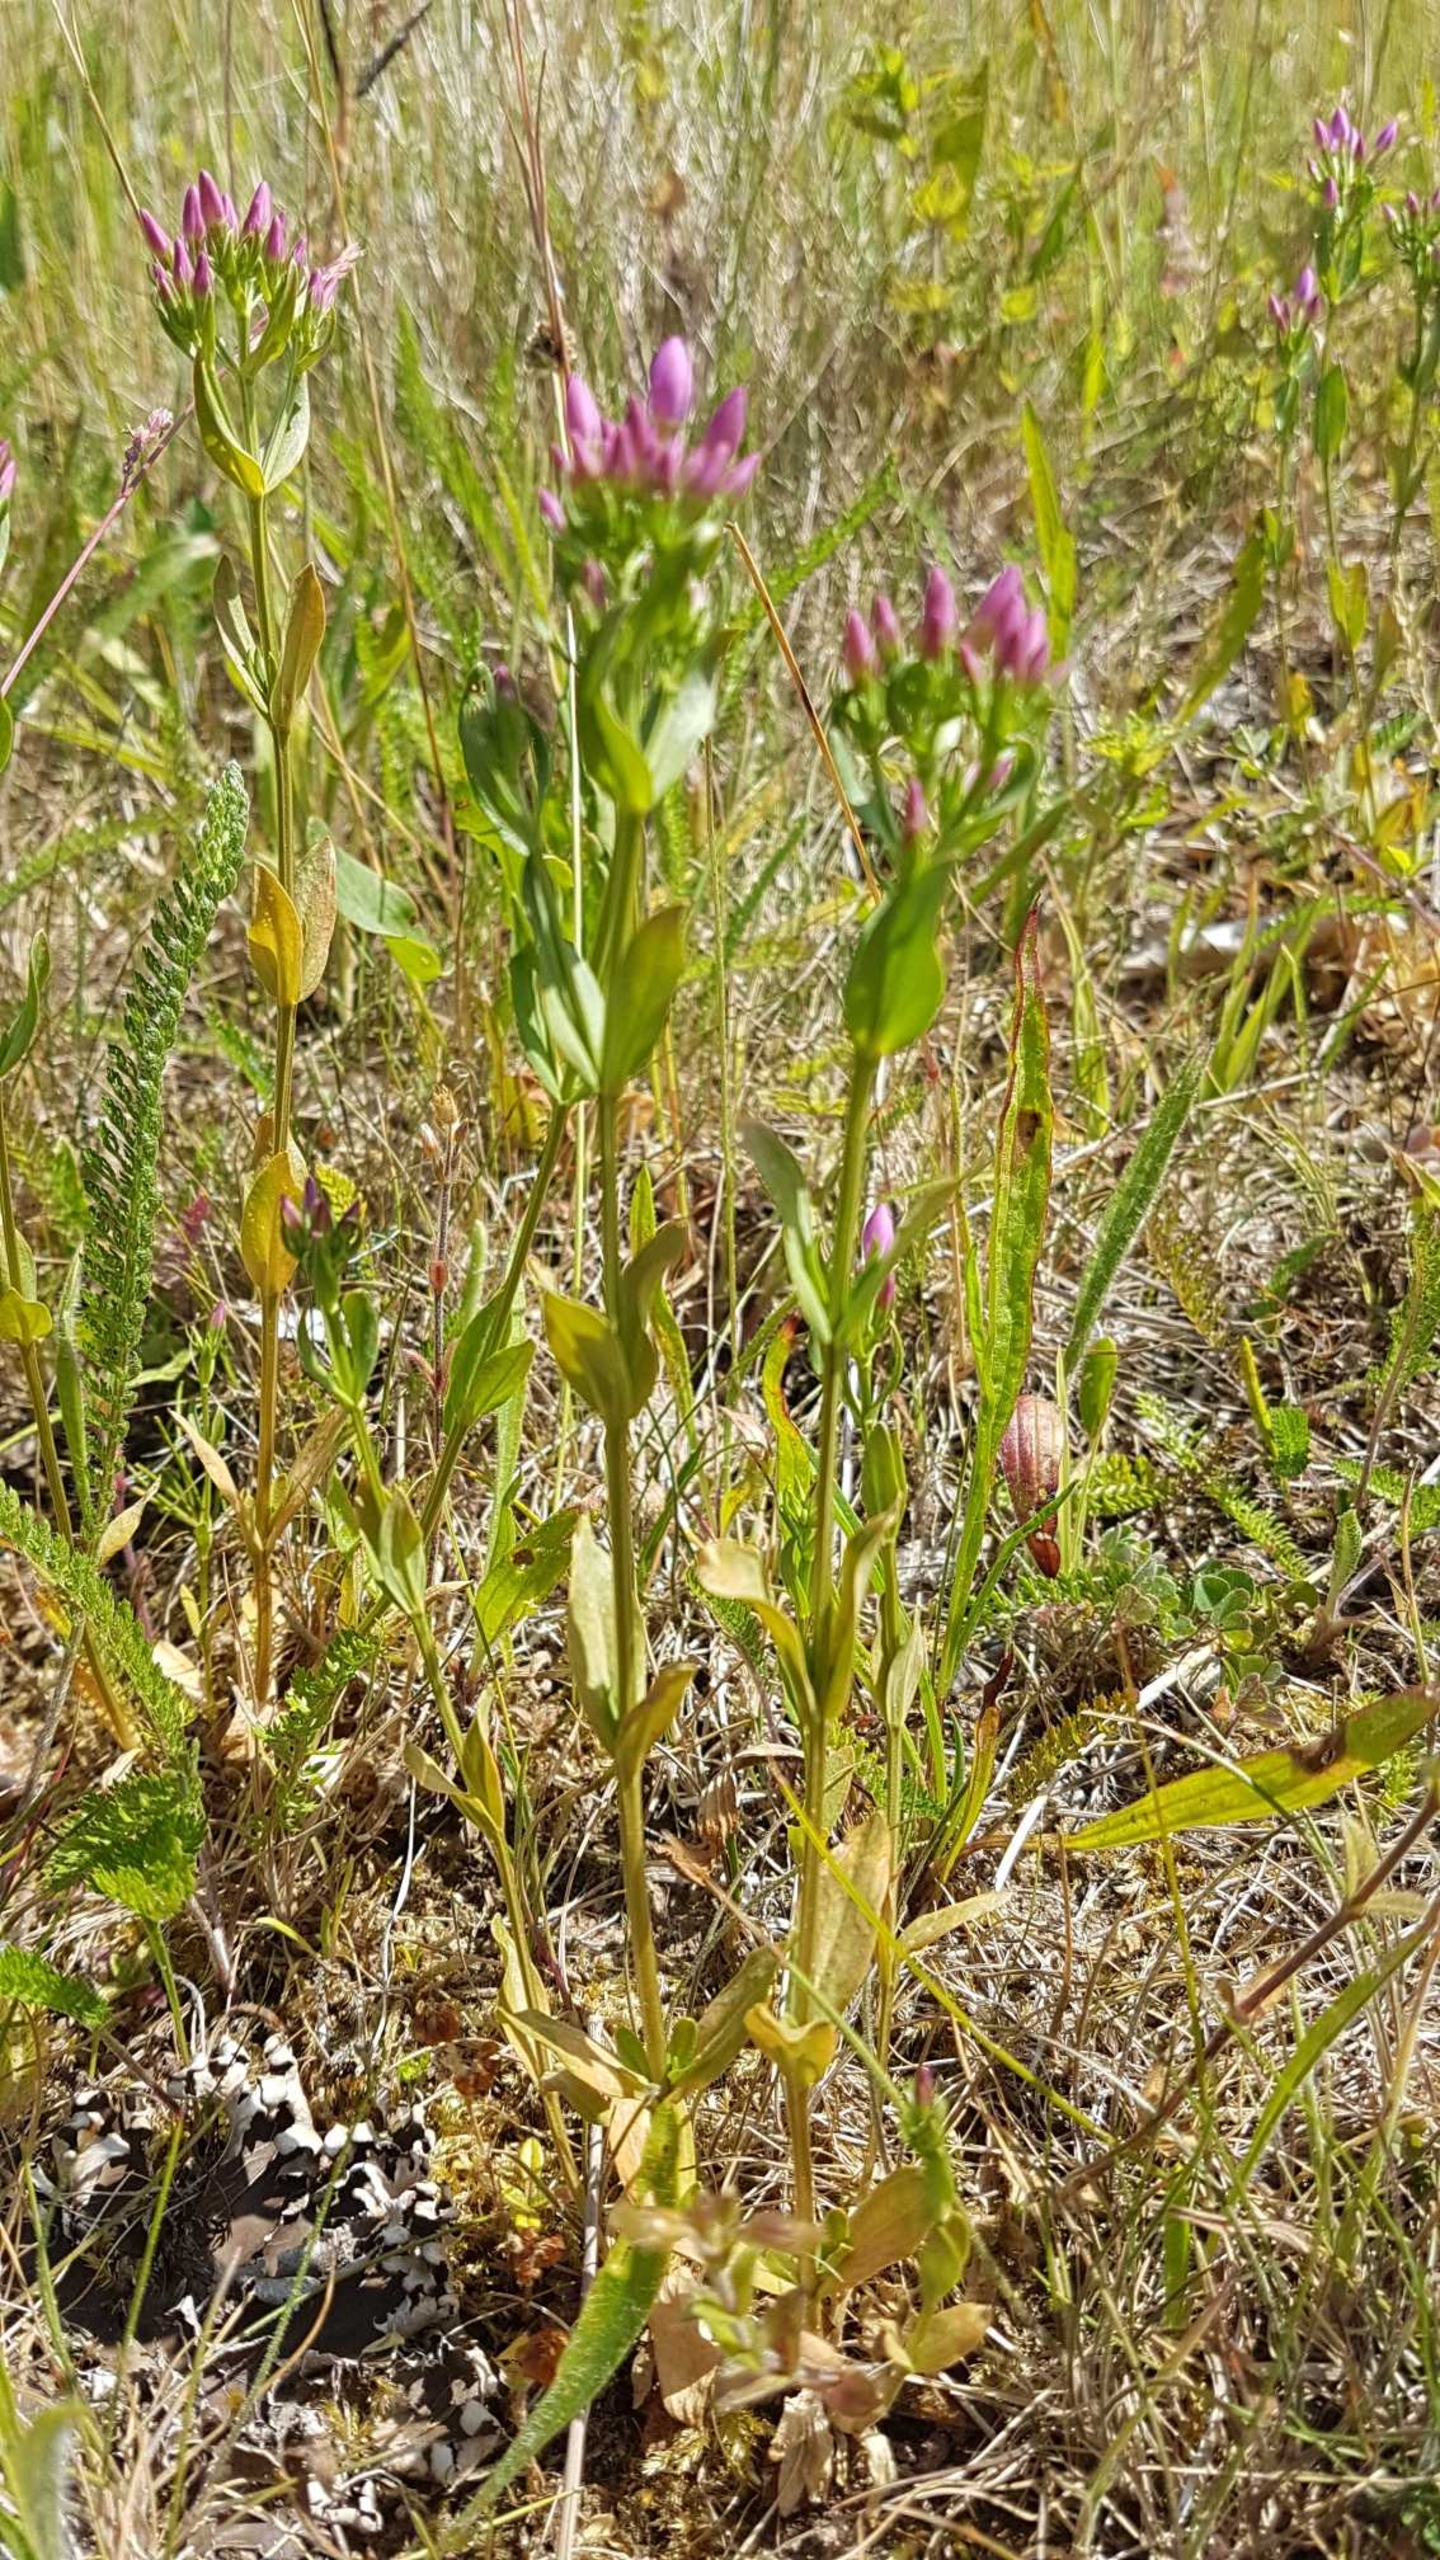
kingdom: Plantae
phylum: Tracheophyta
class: Magnoliopsida
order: Gentianales
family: Gentianaceae
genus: Centaurium
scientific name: Centaurium erythraea
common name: Mark-tusindgylden
